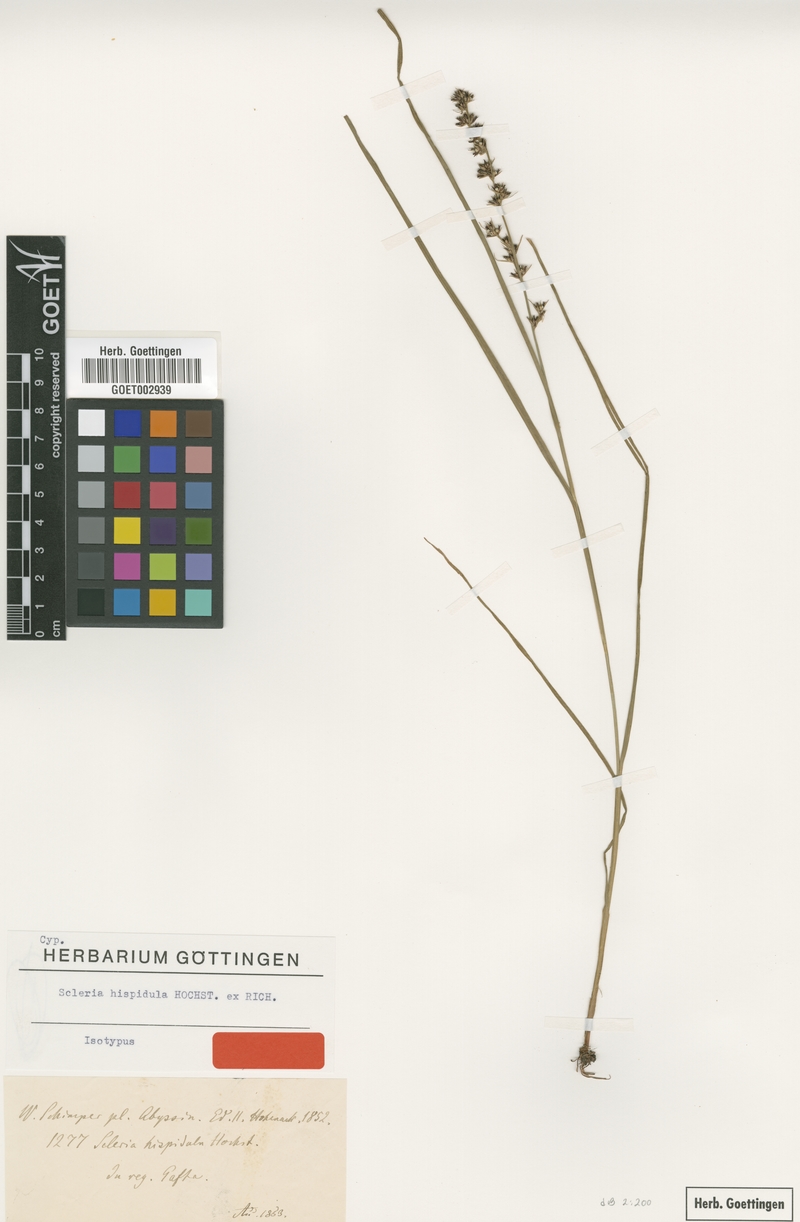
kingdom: Plantae
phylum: Tracheophyta
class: Liliopsida
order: Poales
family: Cyperaceae
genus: Scleria
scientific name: Scleria hispidula
